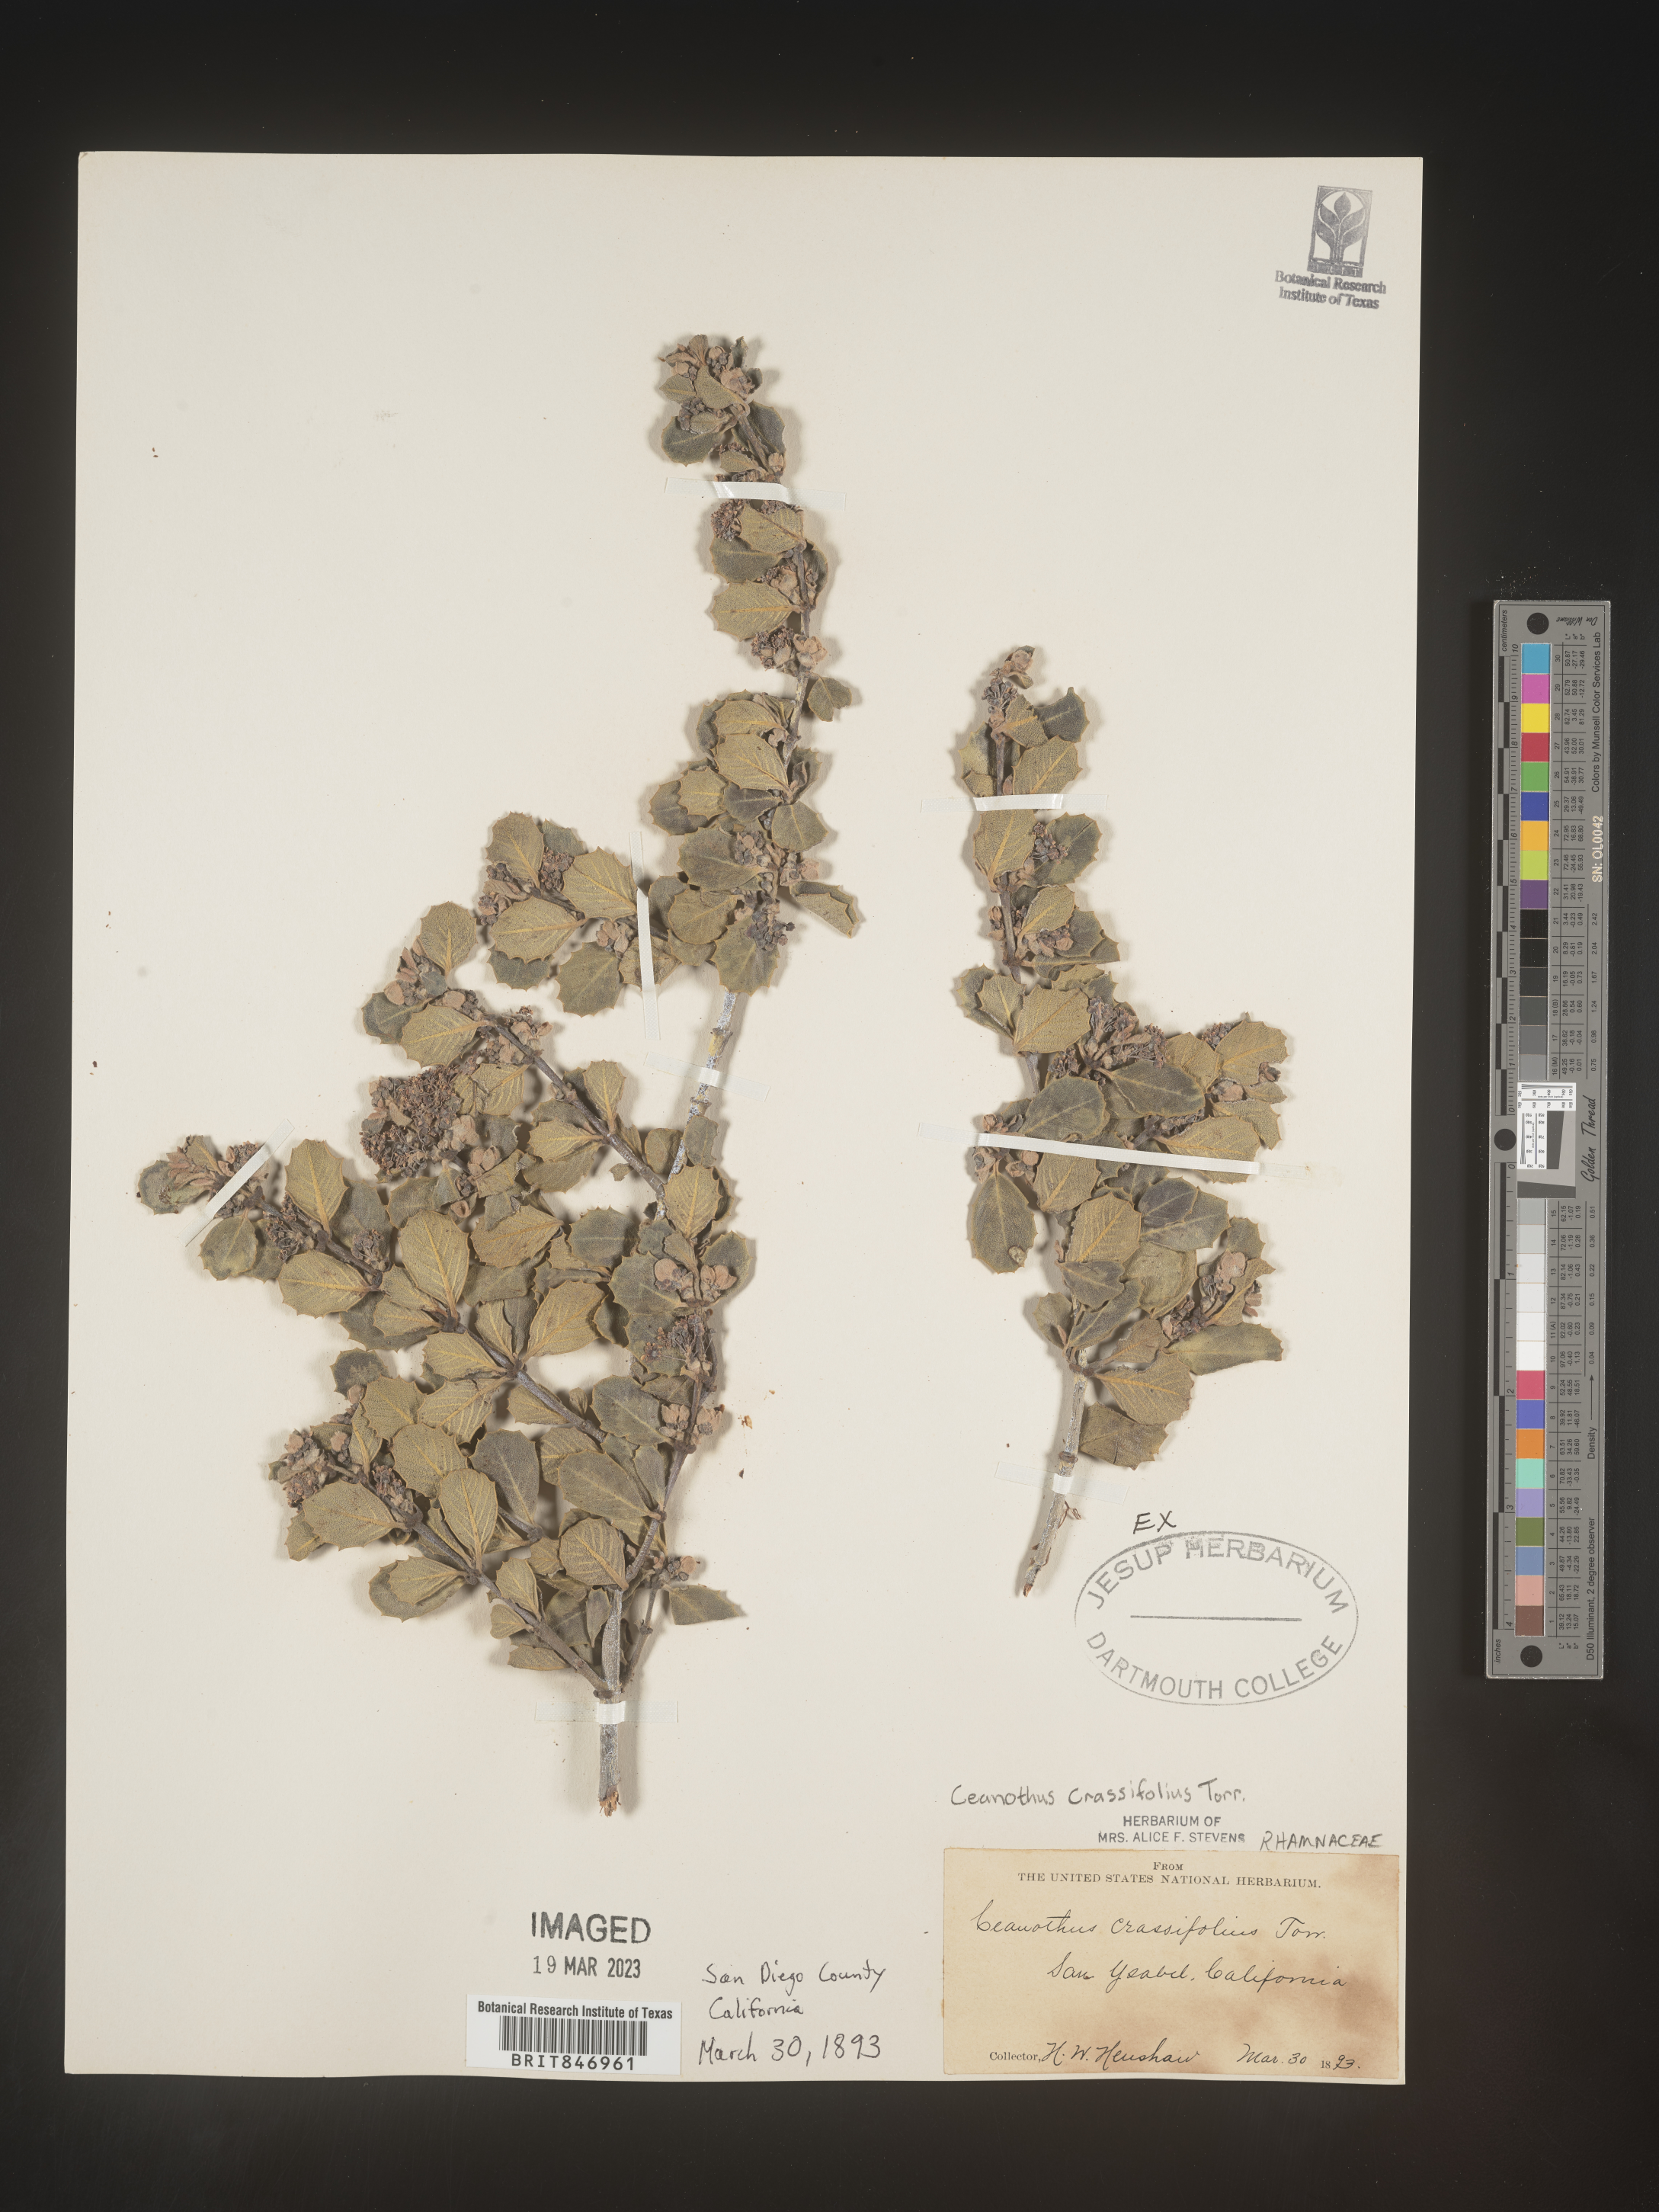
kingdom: Plantae
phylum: Tracheophyta
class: Magnoliopsida
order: Rosales
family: Rhamnaceae
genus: Ceanothus
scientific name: Ceanothus crassifolius
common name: Hoaryleaf ceanothus
